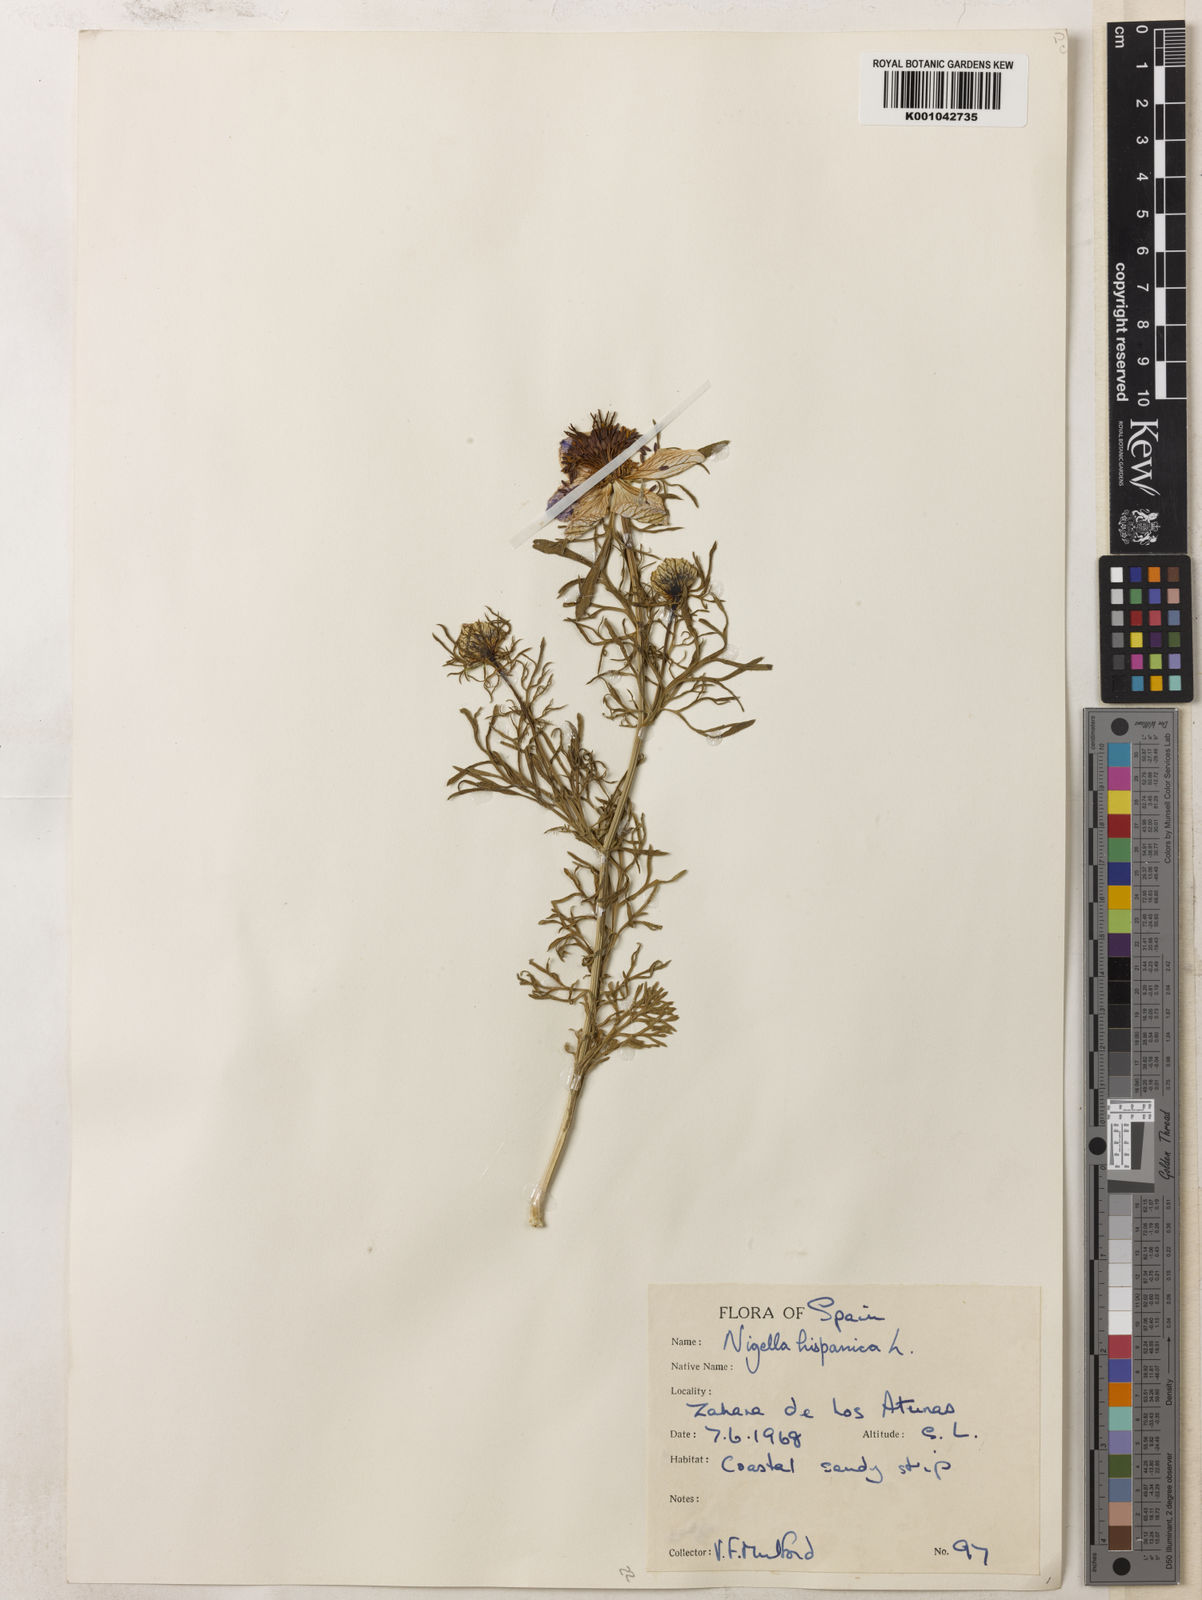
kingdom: Plantae
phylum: Tracheophyta
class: Magnoliopsida
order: Ranunculales
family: Ranunculaceae
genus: Nigella
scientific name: Nigella hispanica
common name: Fennel-flower
